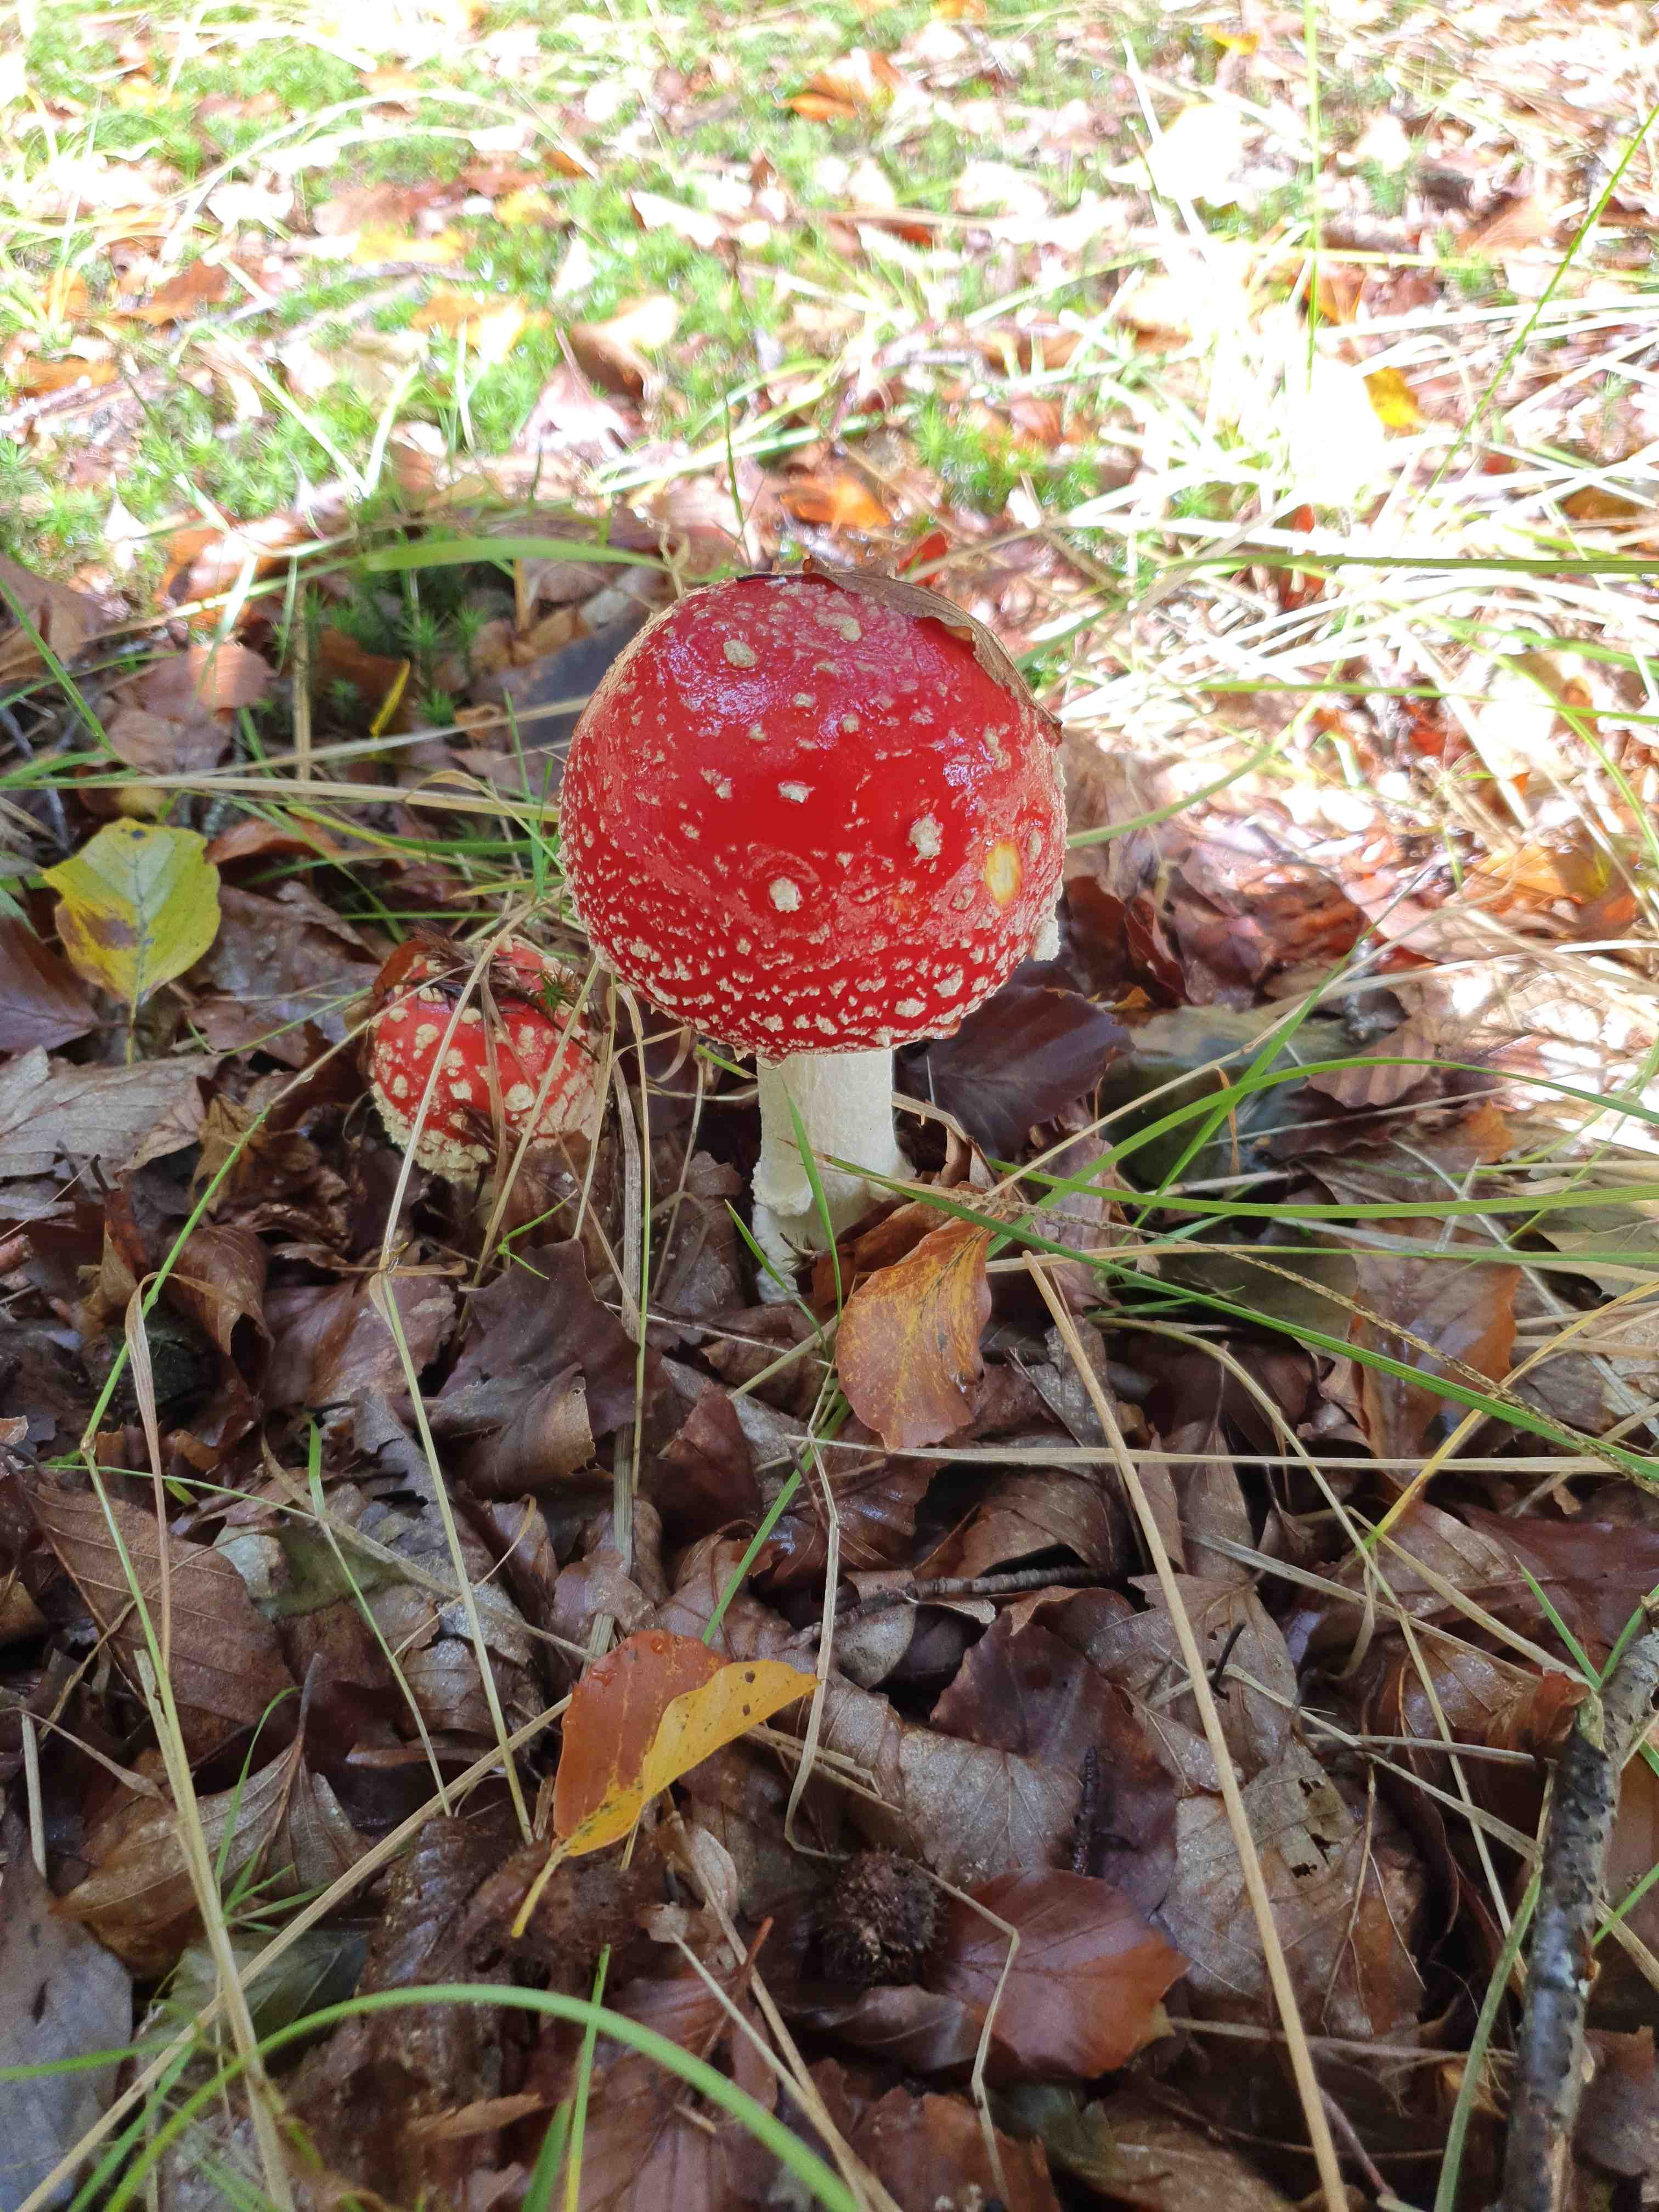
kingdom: Fungi
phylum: Basidiomycota
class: Agaricomycetes
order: Agaricales
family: Amanitaceae
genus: Amanita
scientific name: Amanita muscaria
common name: rød fluesvamp
